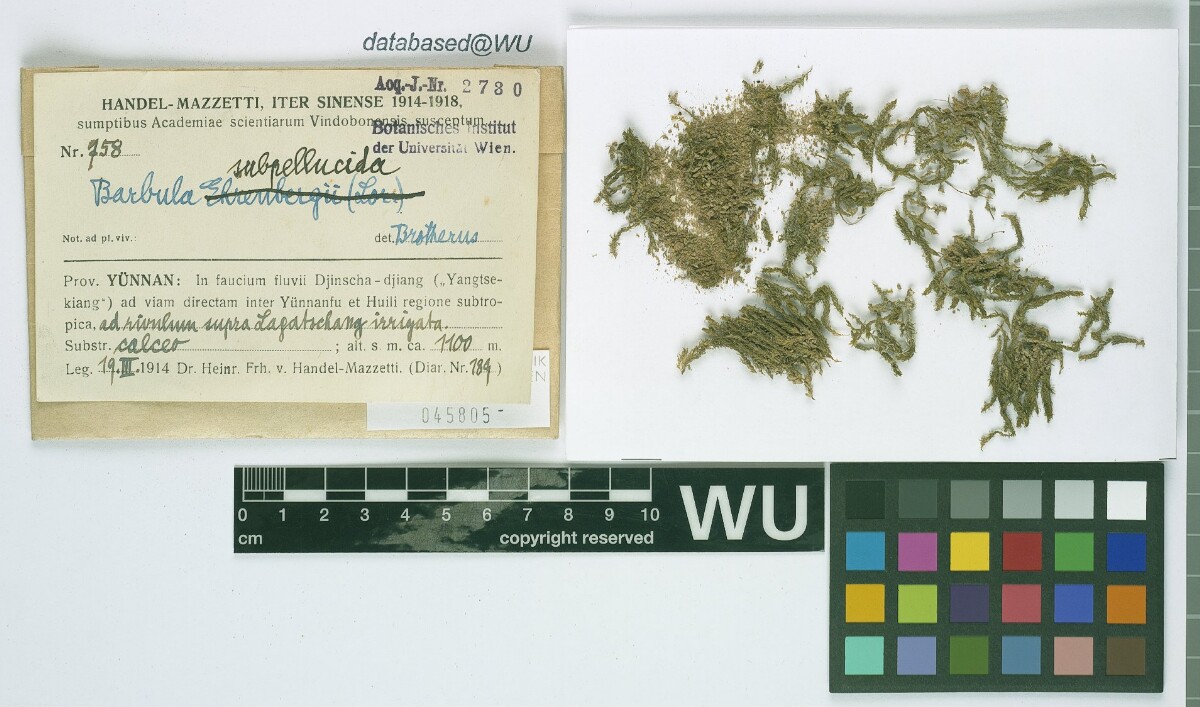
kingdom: Plantae
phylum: Bryophyta
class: Bryopsida
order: Pottiales
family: Pottiaceae
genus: Hydrogonium
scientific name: Hydrogonium subpellucidum
